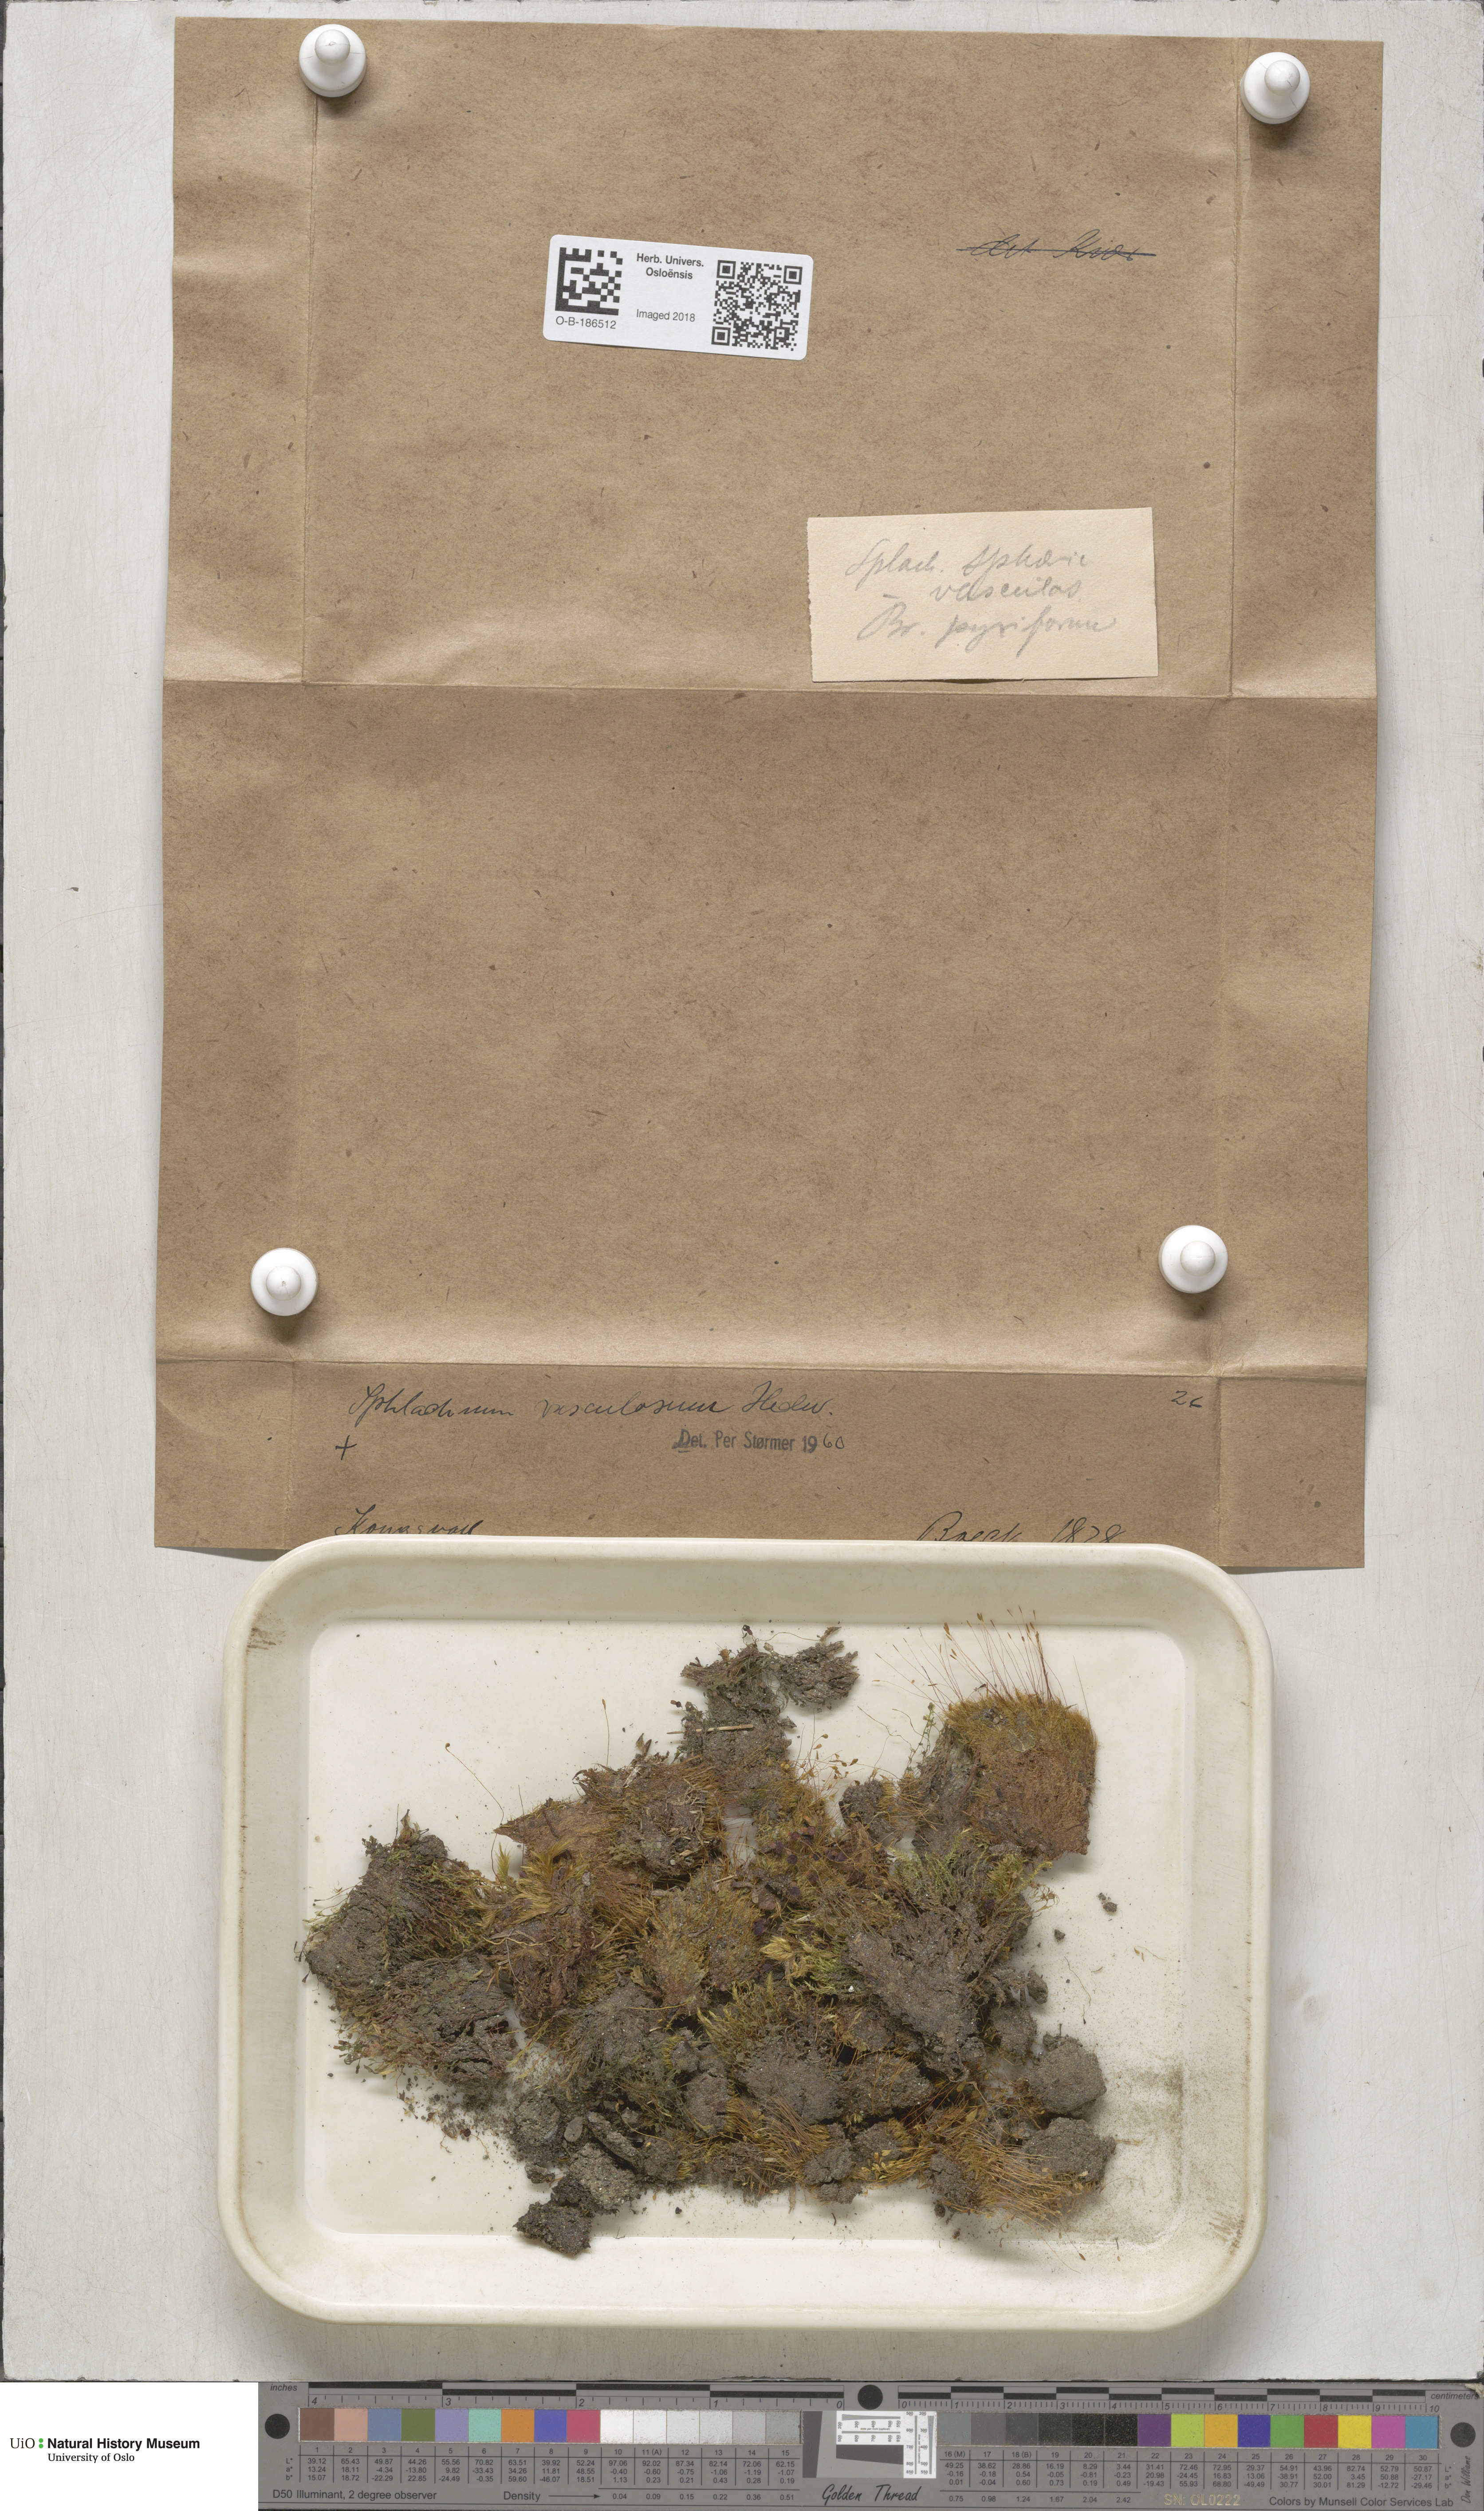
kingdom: Plantae
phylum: Bryophyta
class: Bryopsida
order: Splachnales
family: Splachnaceae
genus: Splachnum
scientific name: Splachnum vasculosum
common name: Rugged dung moss
